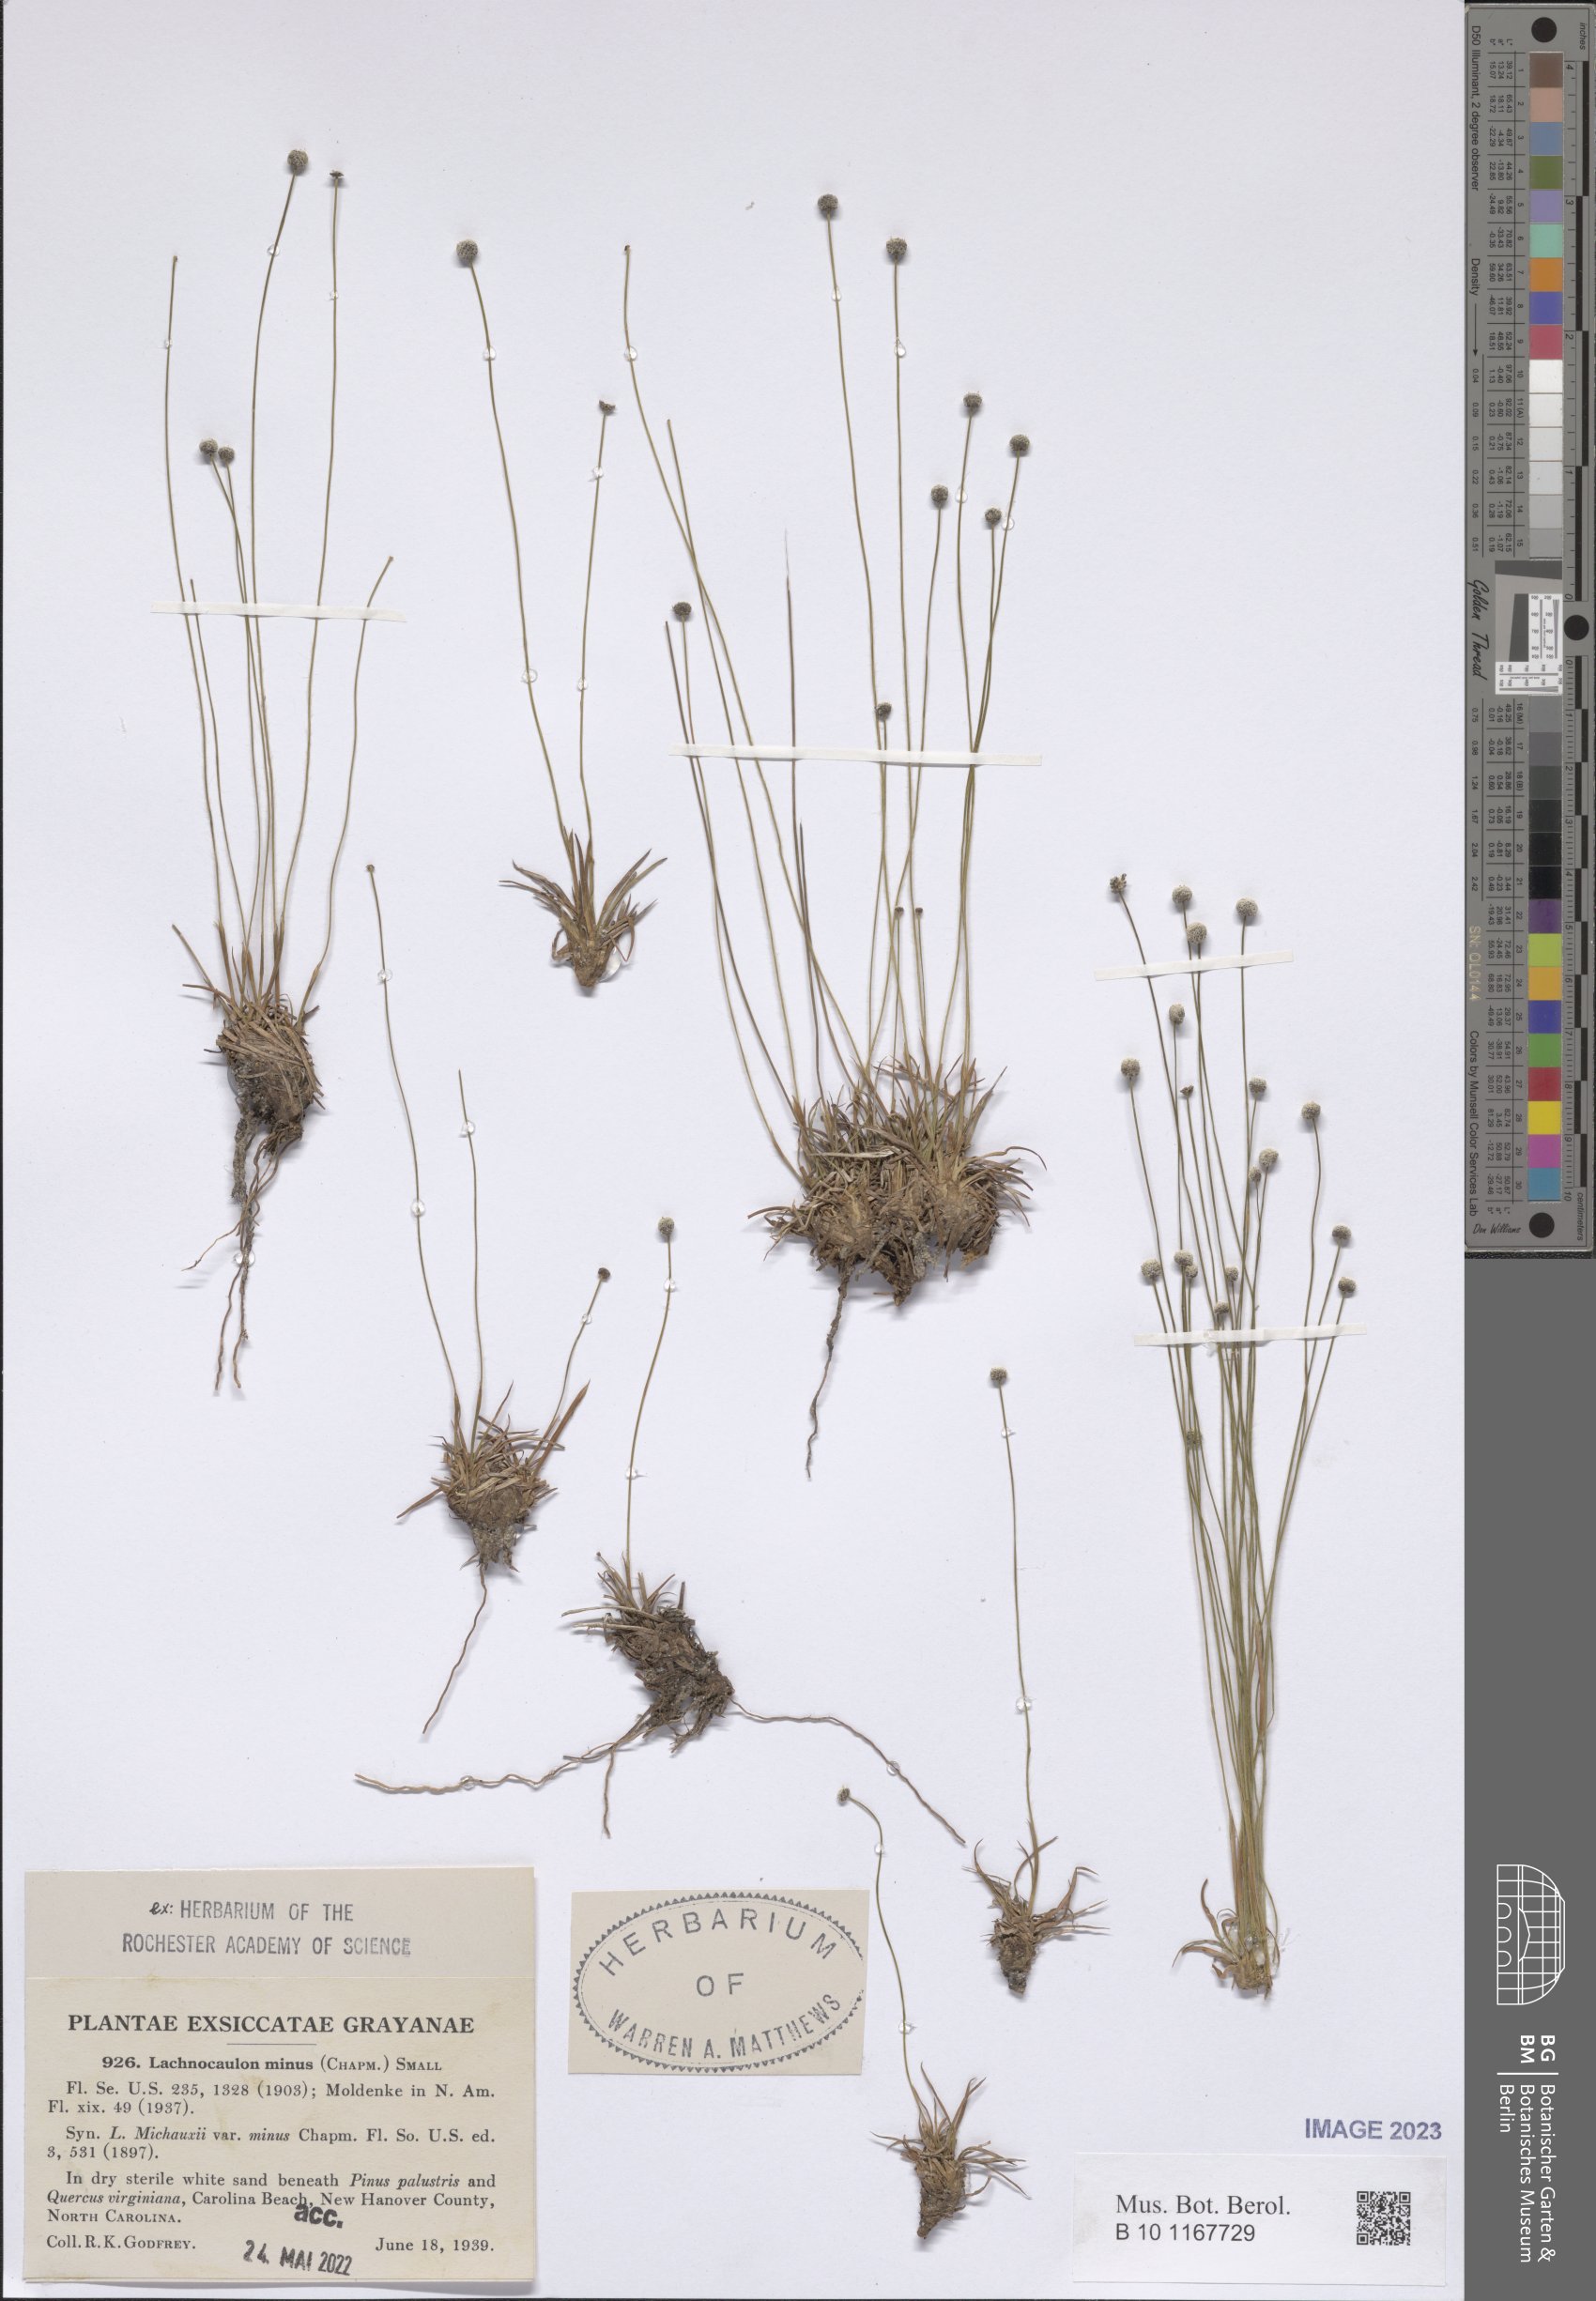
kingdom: Plantae
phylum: Tracheophyta
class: Liliopsida
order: Poales
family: Eriocaulaceae
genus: Paepalanthus
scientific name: Paepalanthus minus
